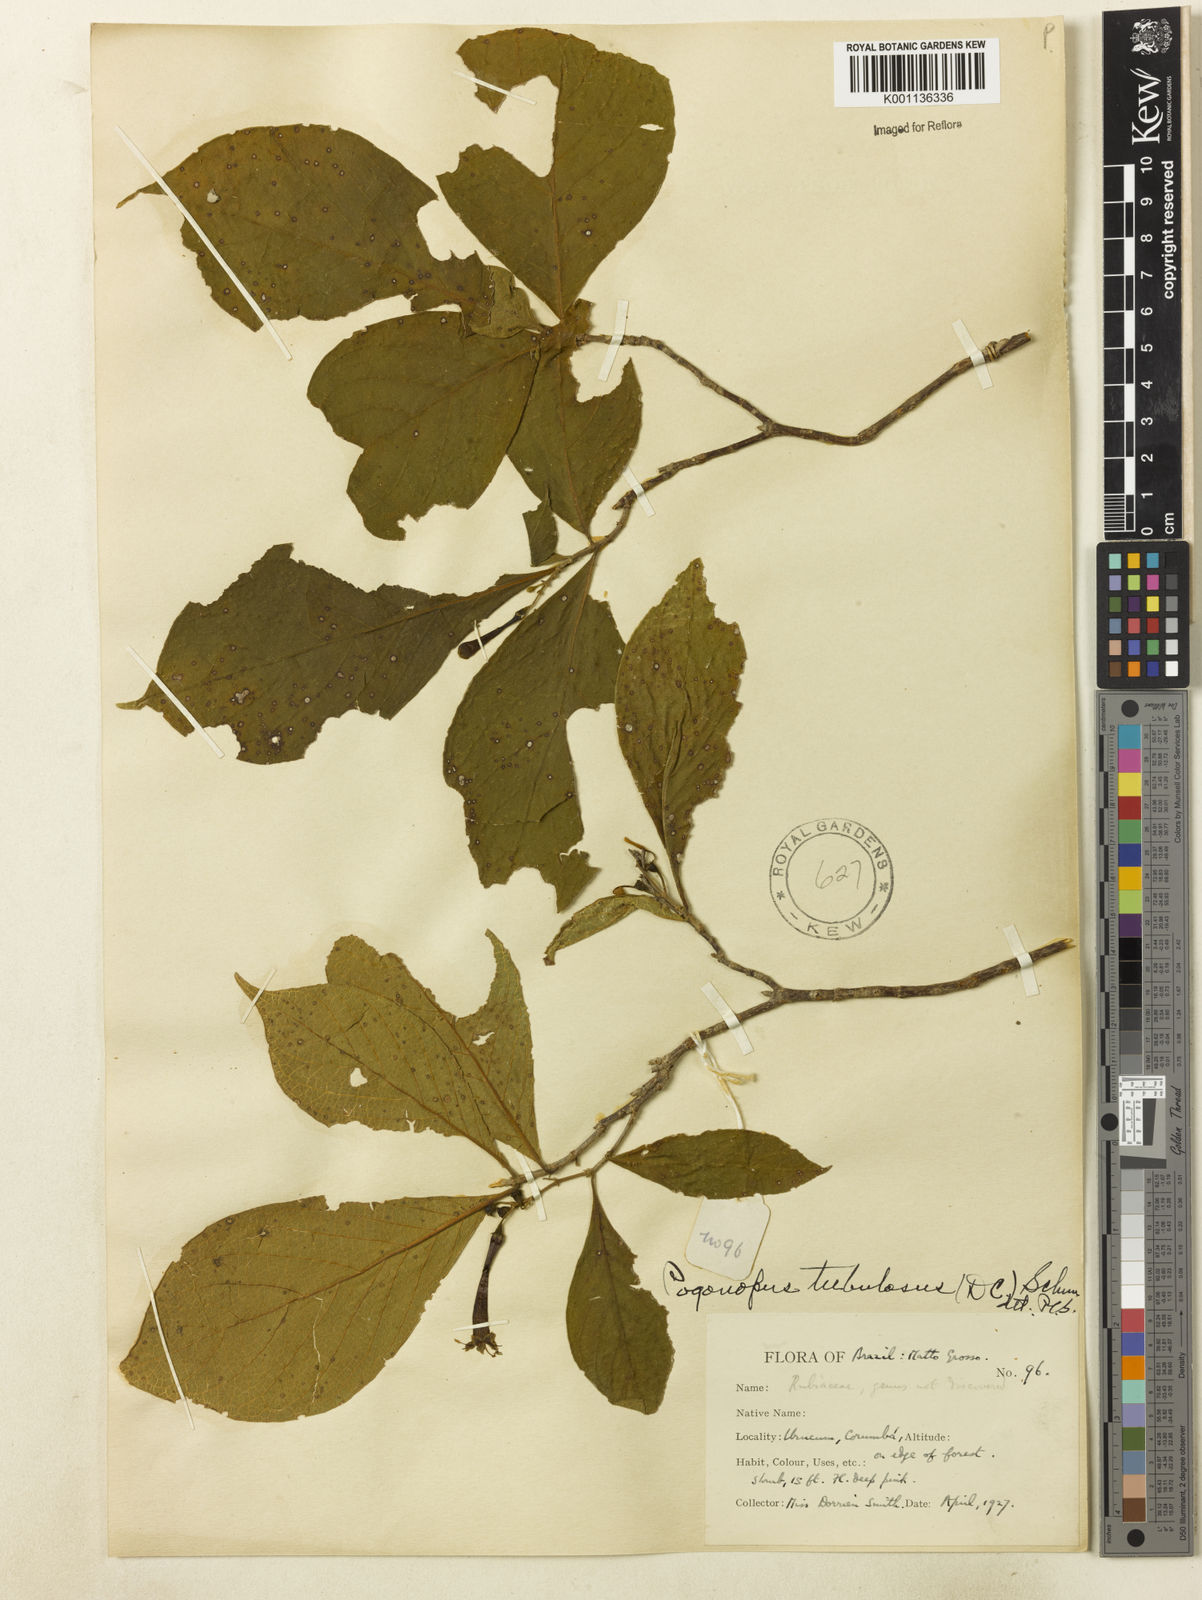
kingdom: Plantae
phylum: Tracheophyta
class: Magnoliopsida
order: Gentianales
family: Rubiaceae
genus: Pogonopus
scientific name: Pogonopus tubulosus
